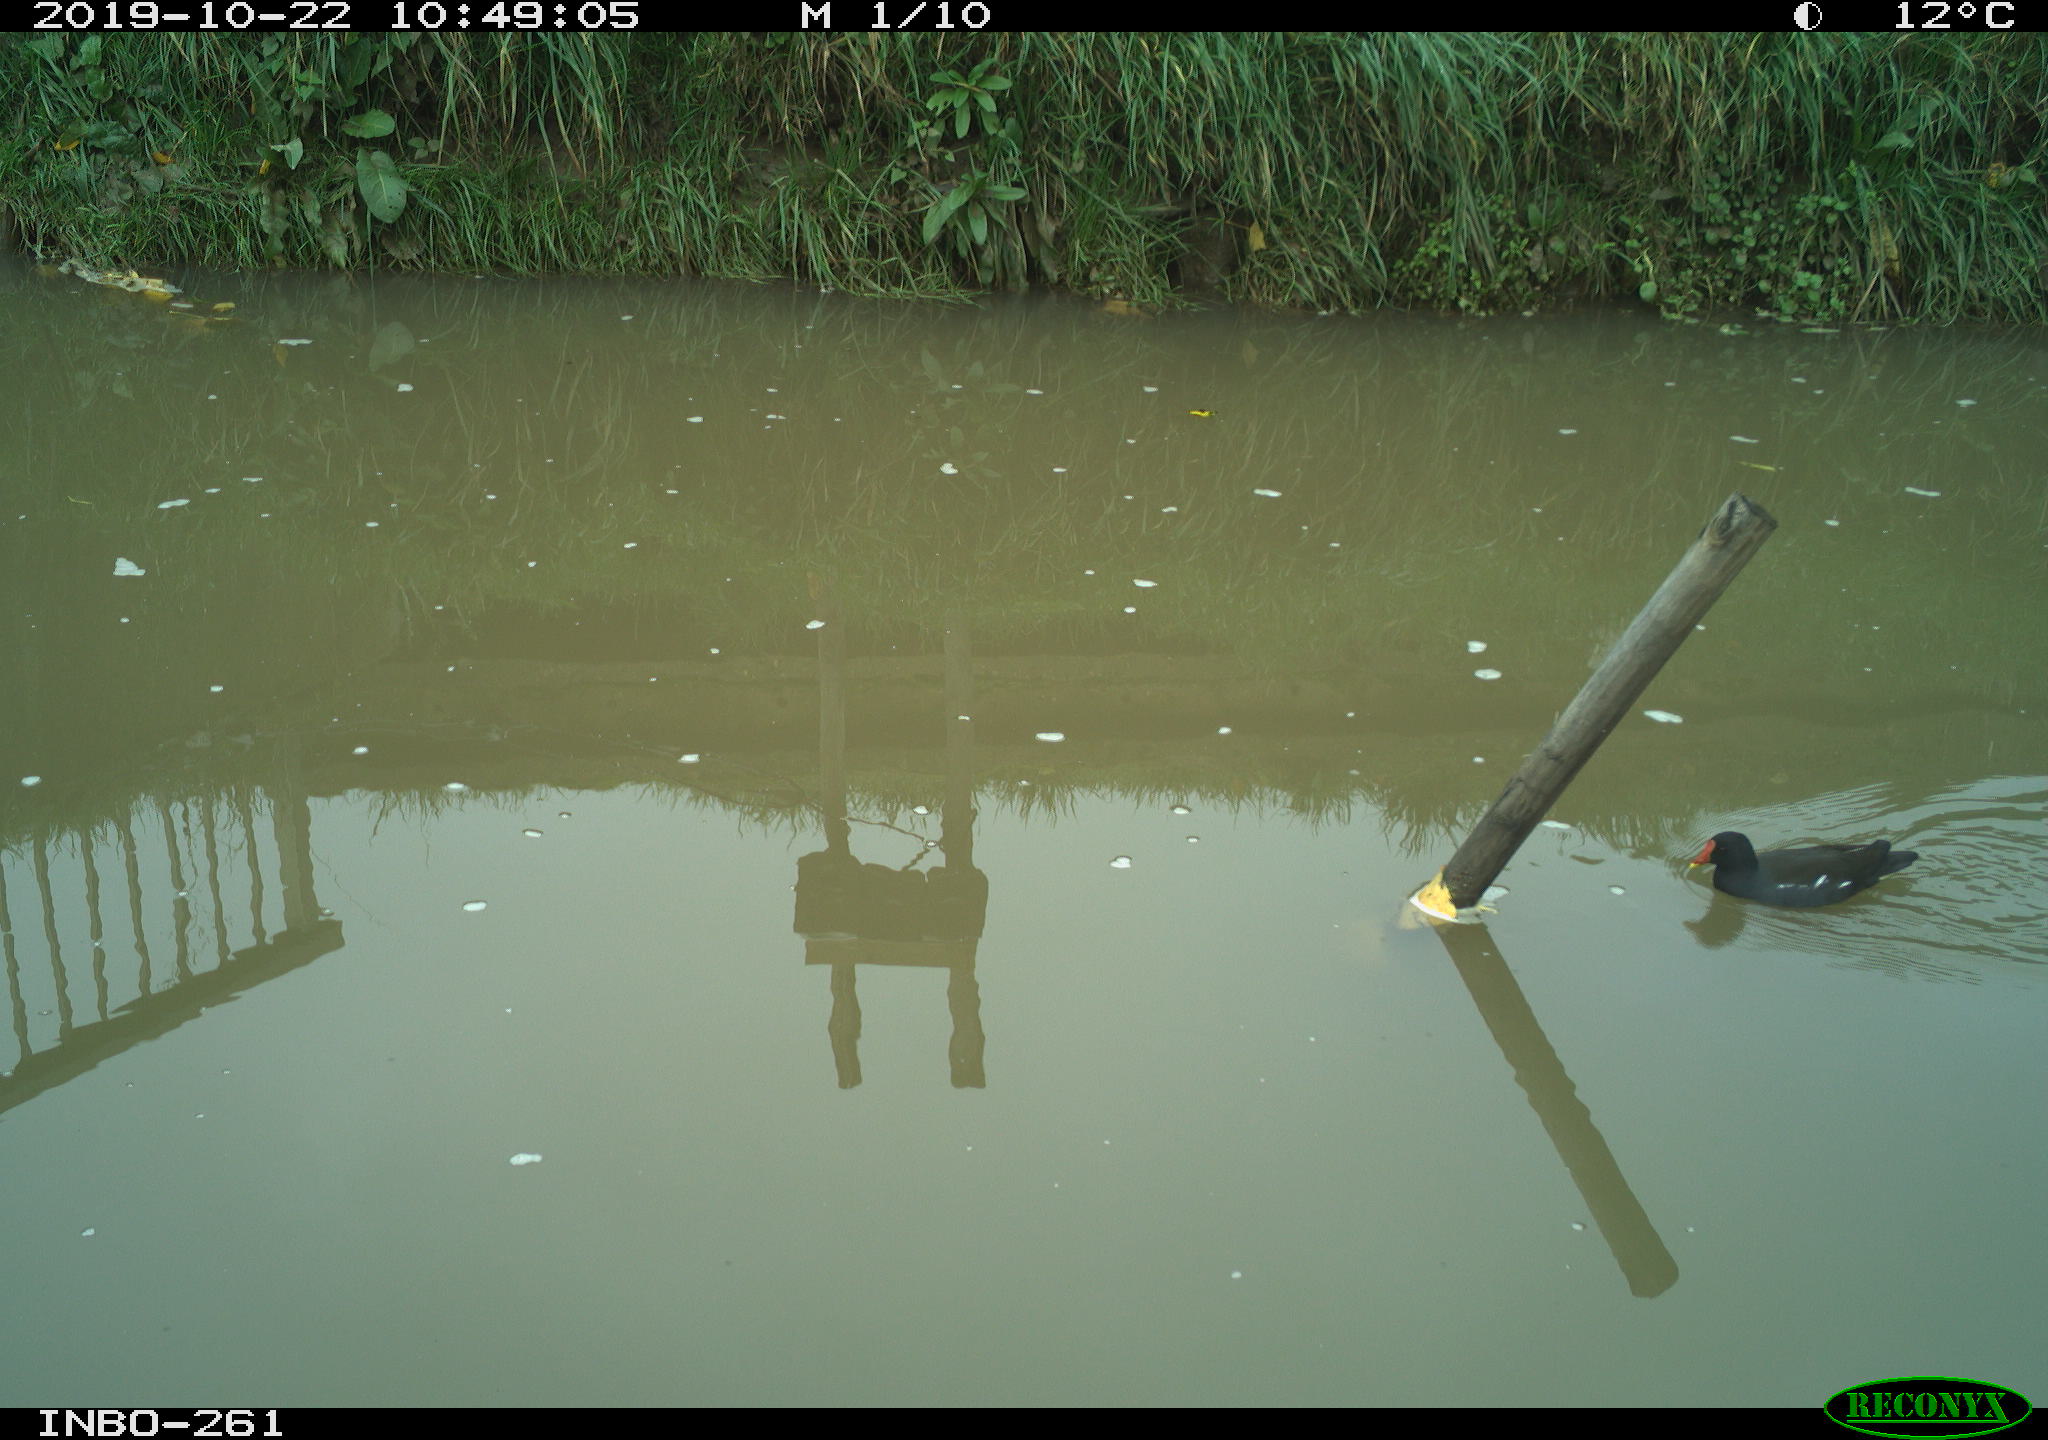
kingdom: Animalia
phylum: Chordata
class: Aves
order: Gruiformes
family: Rallidae
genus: Gallinula
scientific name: Gallinula chloropus
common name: Common moorhen
